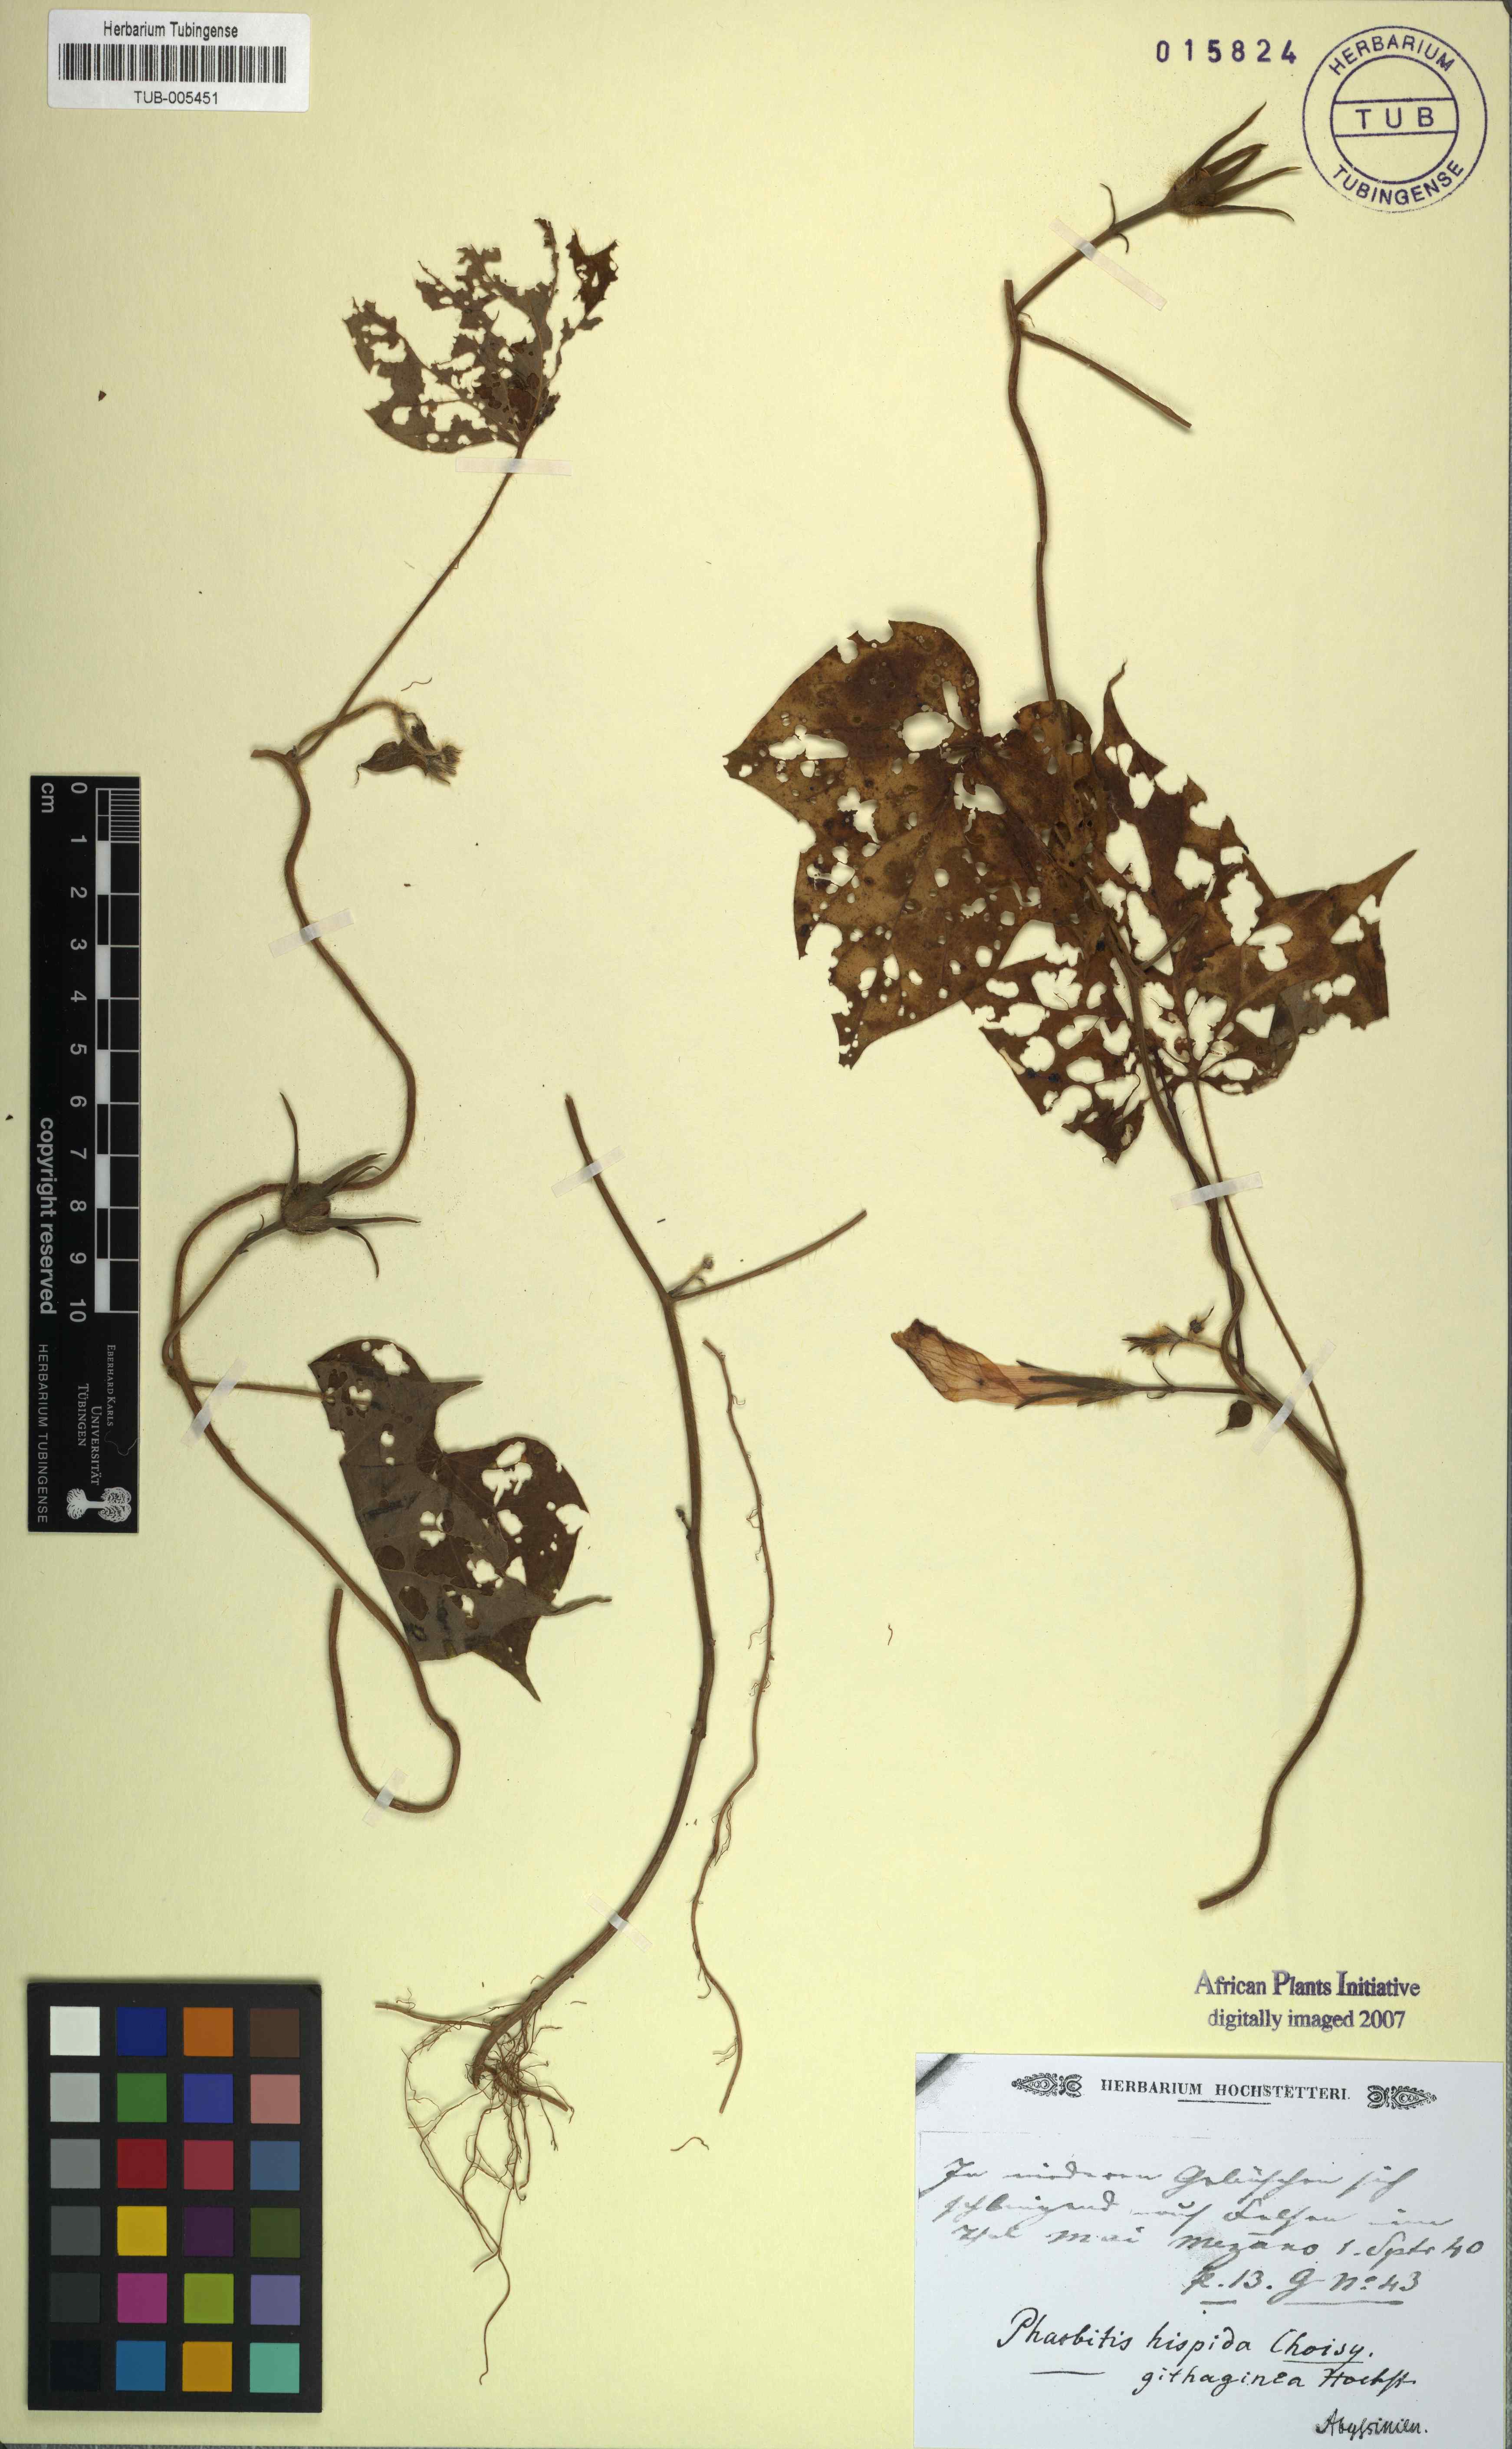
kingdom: Plantae
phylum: Tracheophyta
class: Magnoliopsida
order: Solanales
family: Convolvulaceae
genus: Ipomoea
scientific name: Ipomoea
